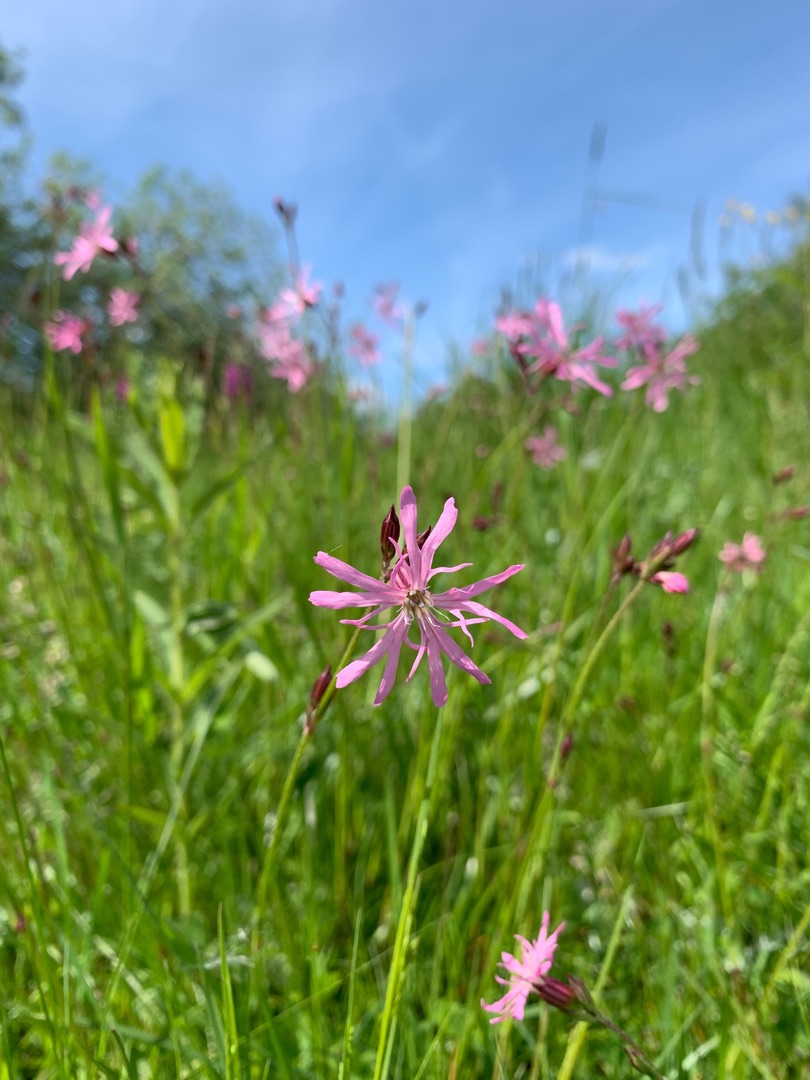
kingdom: Plantae
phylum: Tracheophyta
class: Magnoliopsida
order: Caryophyllales
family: Caryophyllaceae
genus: Silene
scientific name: Silene flos-cuculi
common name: Trævlekrone
